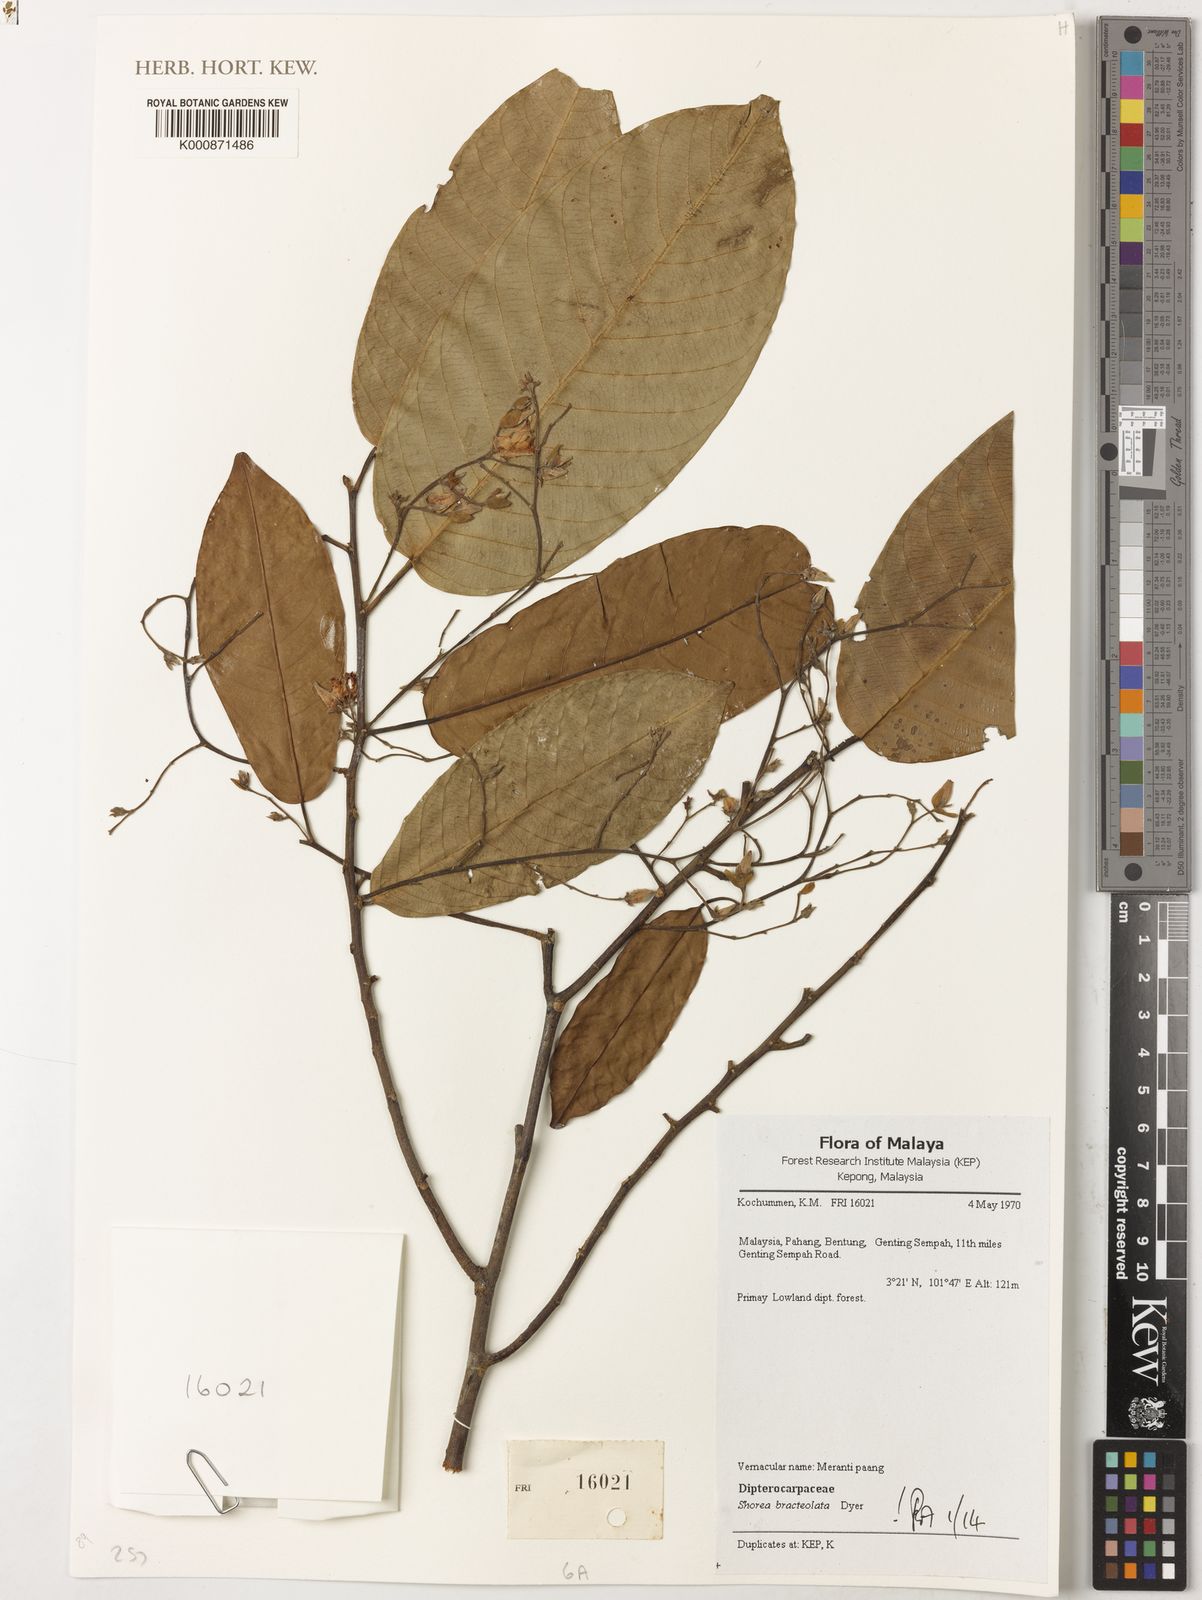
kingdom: Plantae
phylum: Tracheophyta
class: Magnoliopsida
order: Malvales
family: Dipterocarpaceae
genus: Anthoshorea
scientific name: Anthoshorea bracteolata
